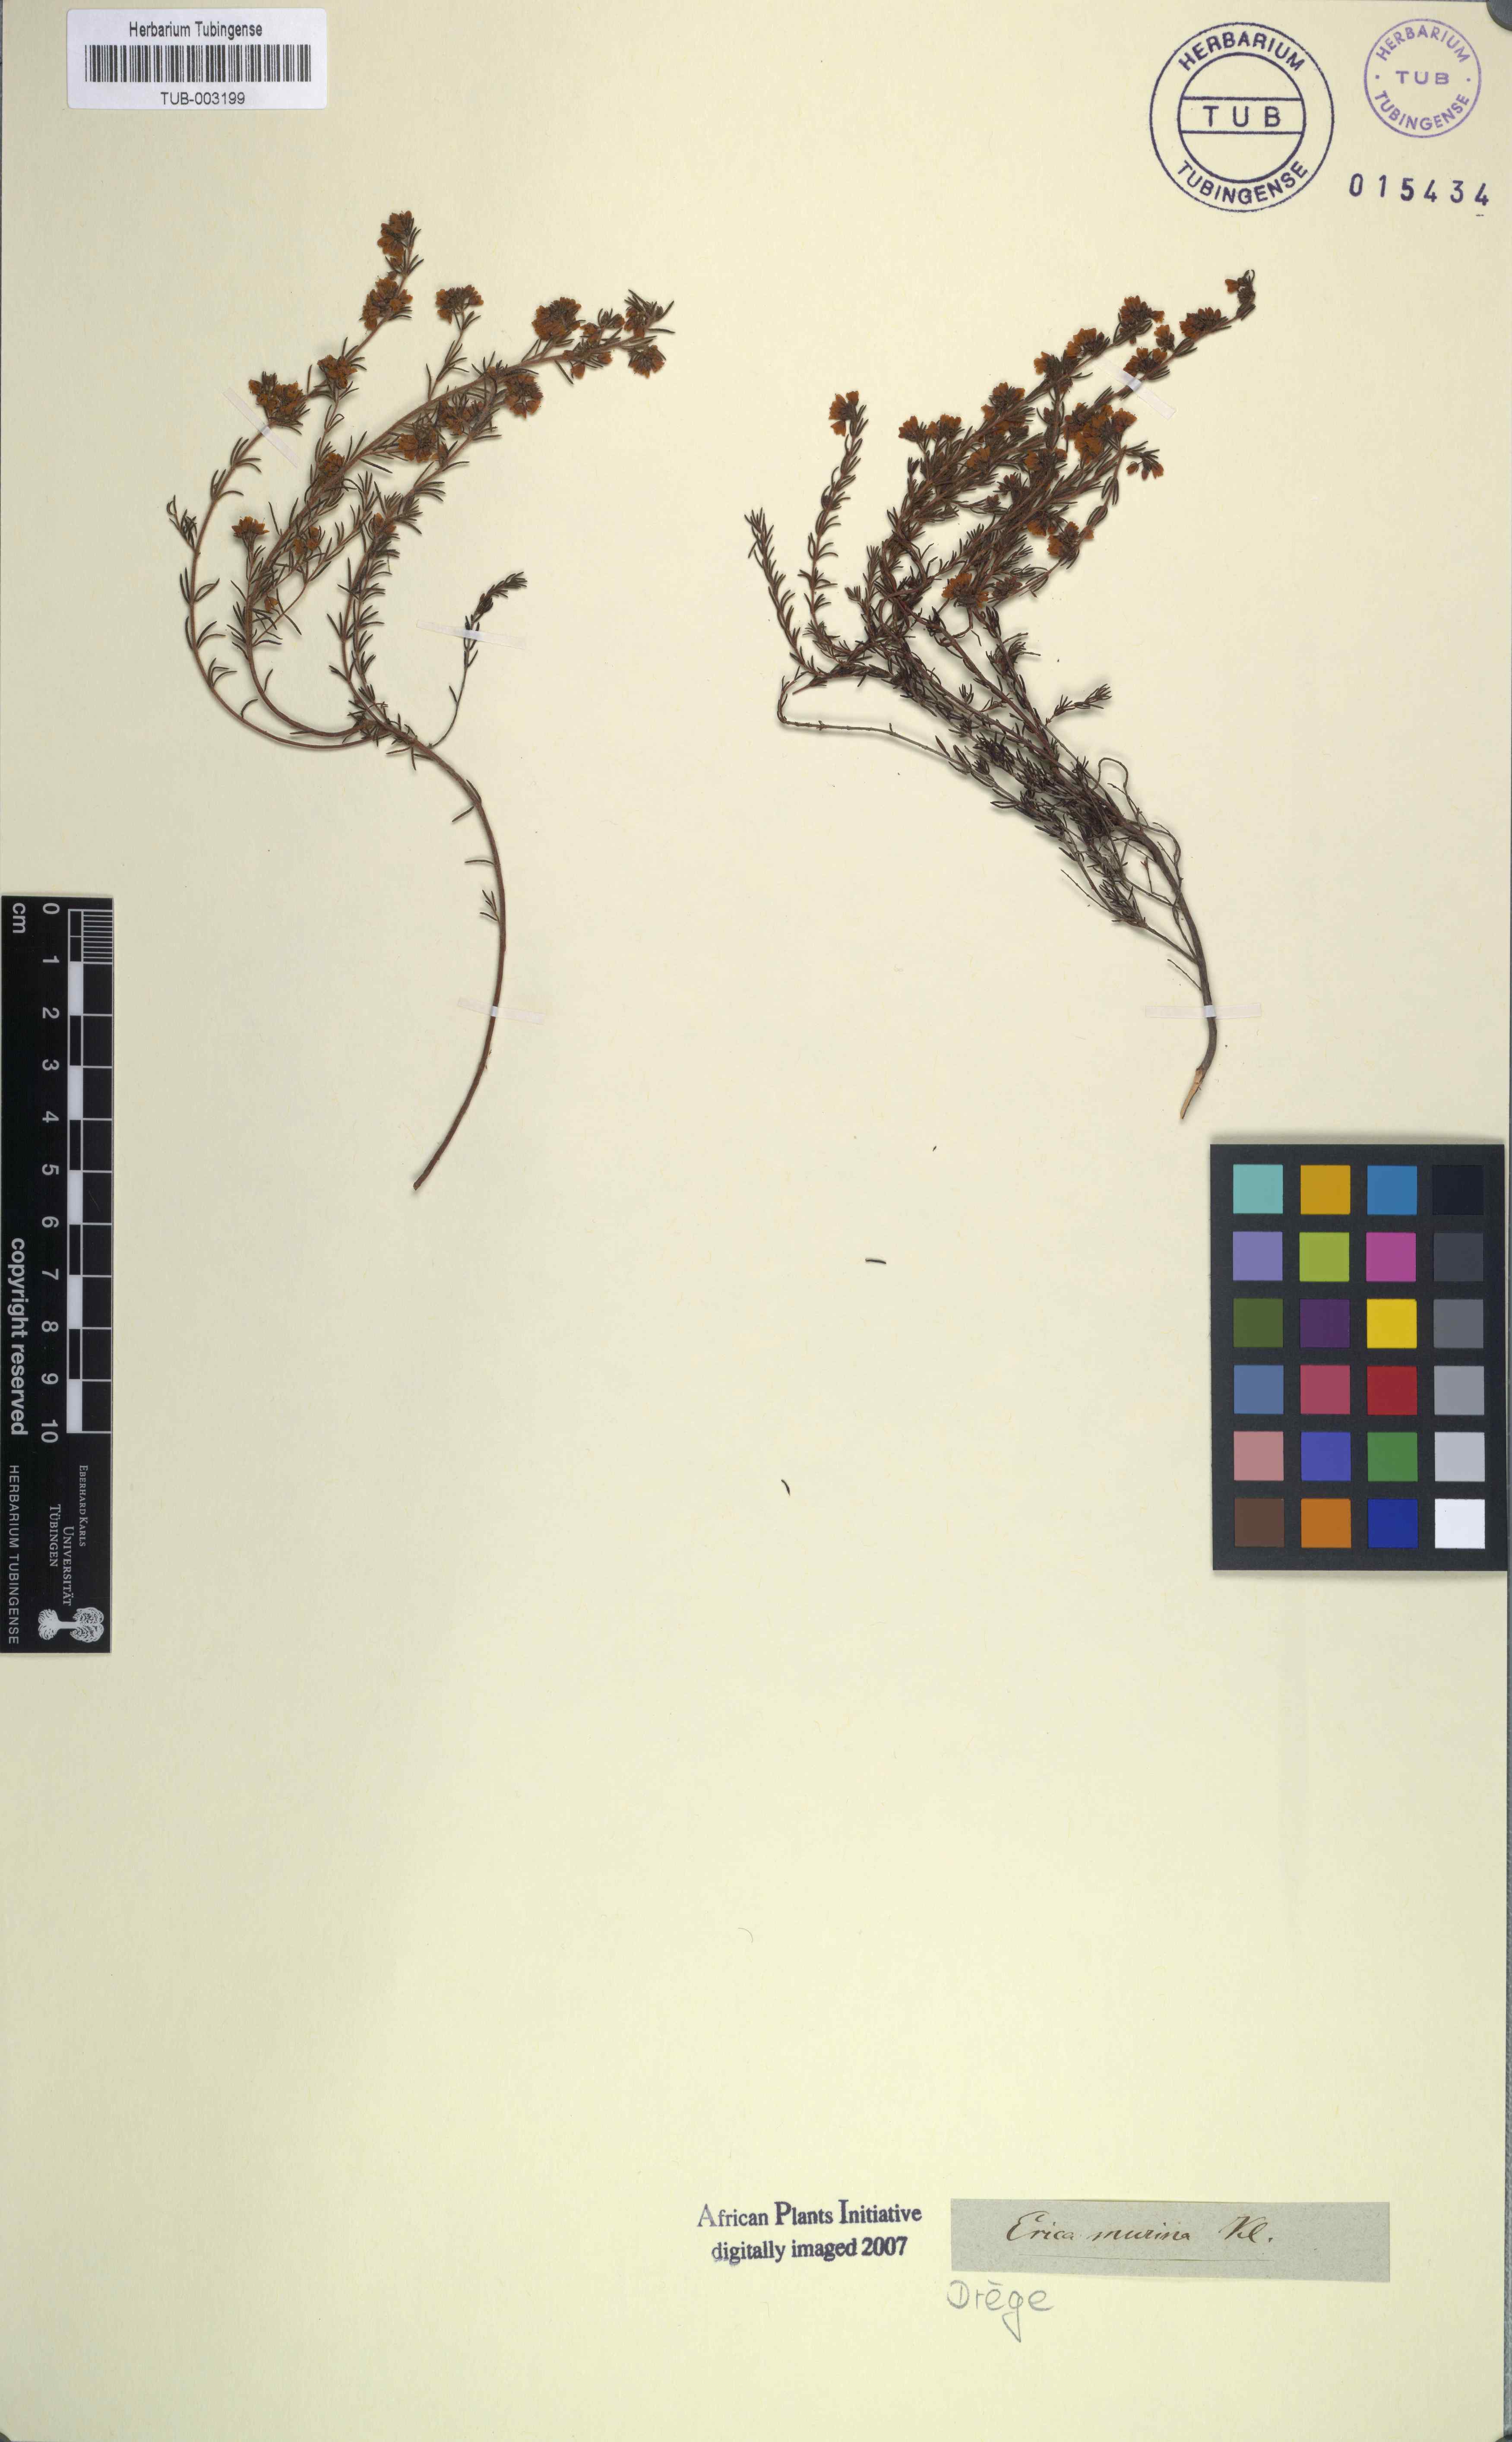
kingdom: Plantae
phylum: Tracheophyta
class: Magnoliopsida
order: Ericales
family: Ericaceae
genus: Erica
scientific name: Erica distorta
